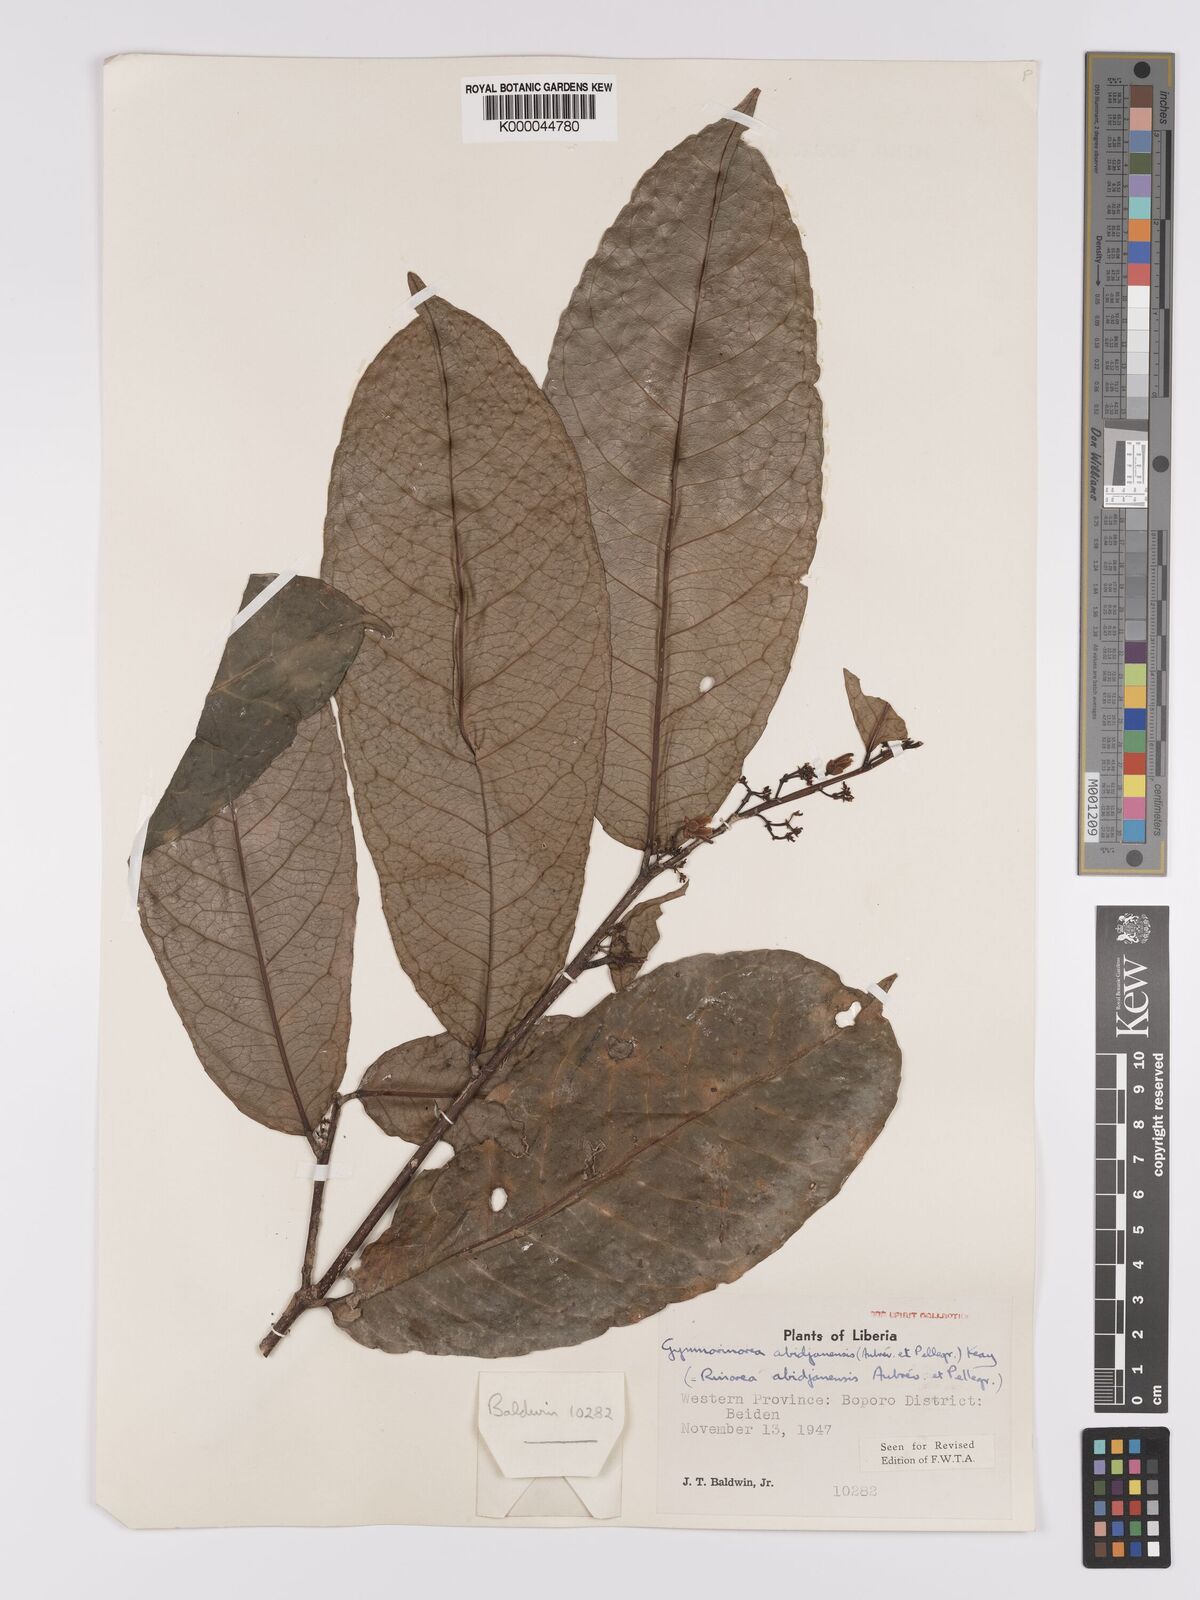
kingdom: Plantae
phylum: Tracheophyta
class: Magnoliopsida
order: Malpighiales
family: Violaceae
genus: Decorsella
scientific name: Decorsella paradoxa
